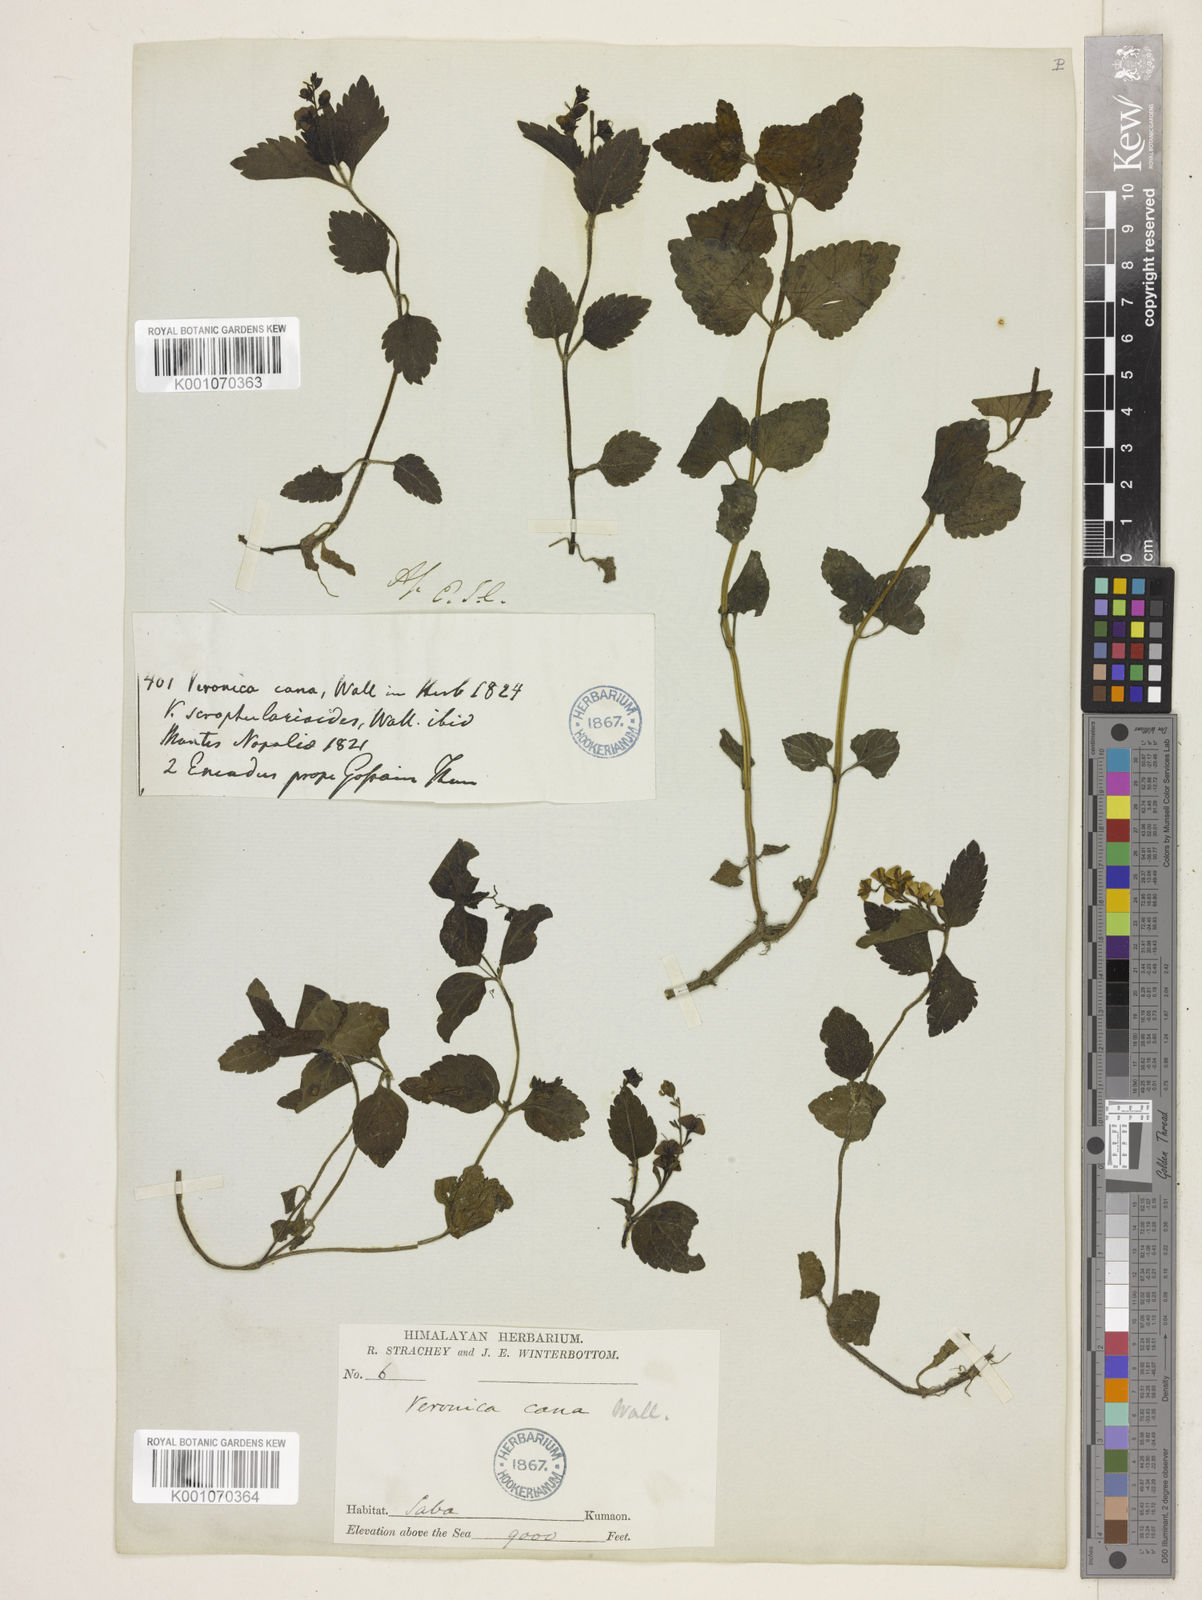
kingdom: Plantae
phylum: Tracheophyta
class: Magnoliopsida
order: Lamiales
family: Plantaginaceae
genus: Veronica
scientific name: Veronica cana
